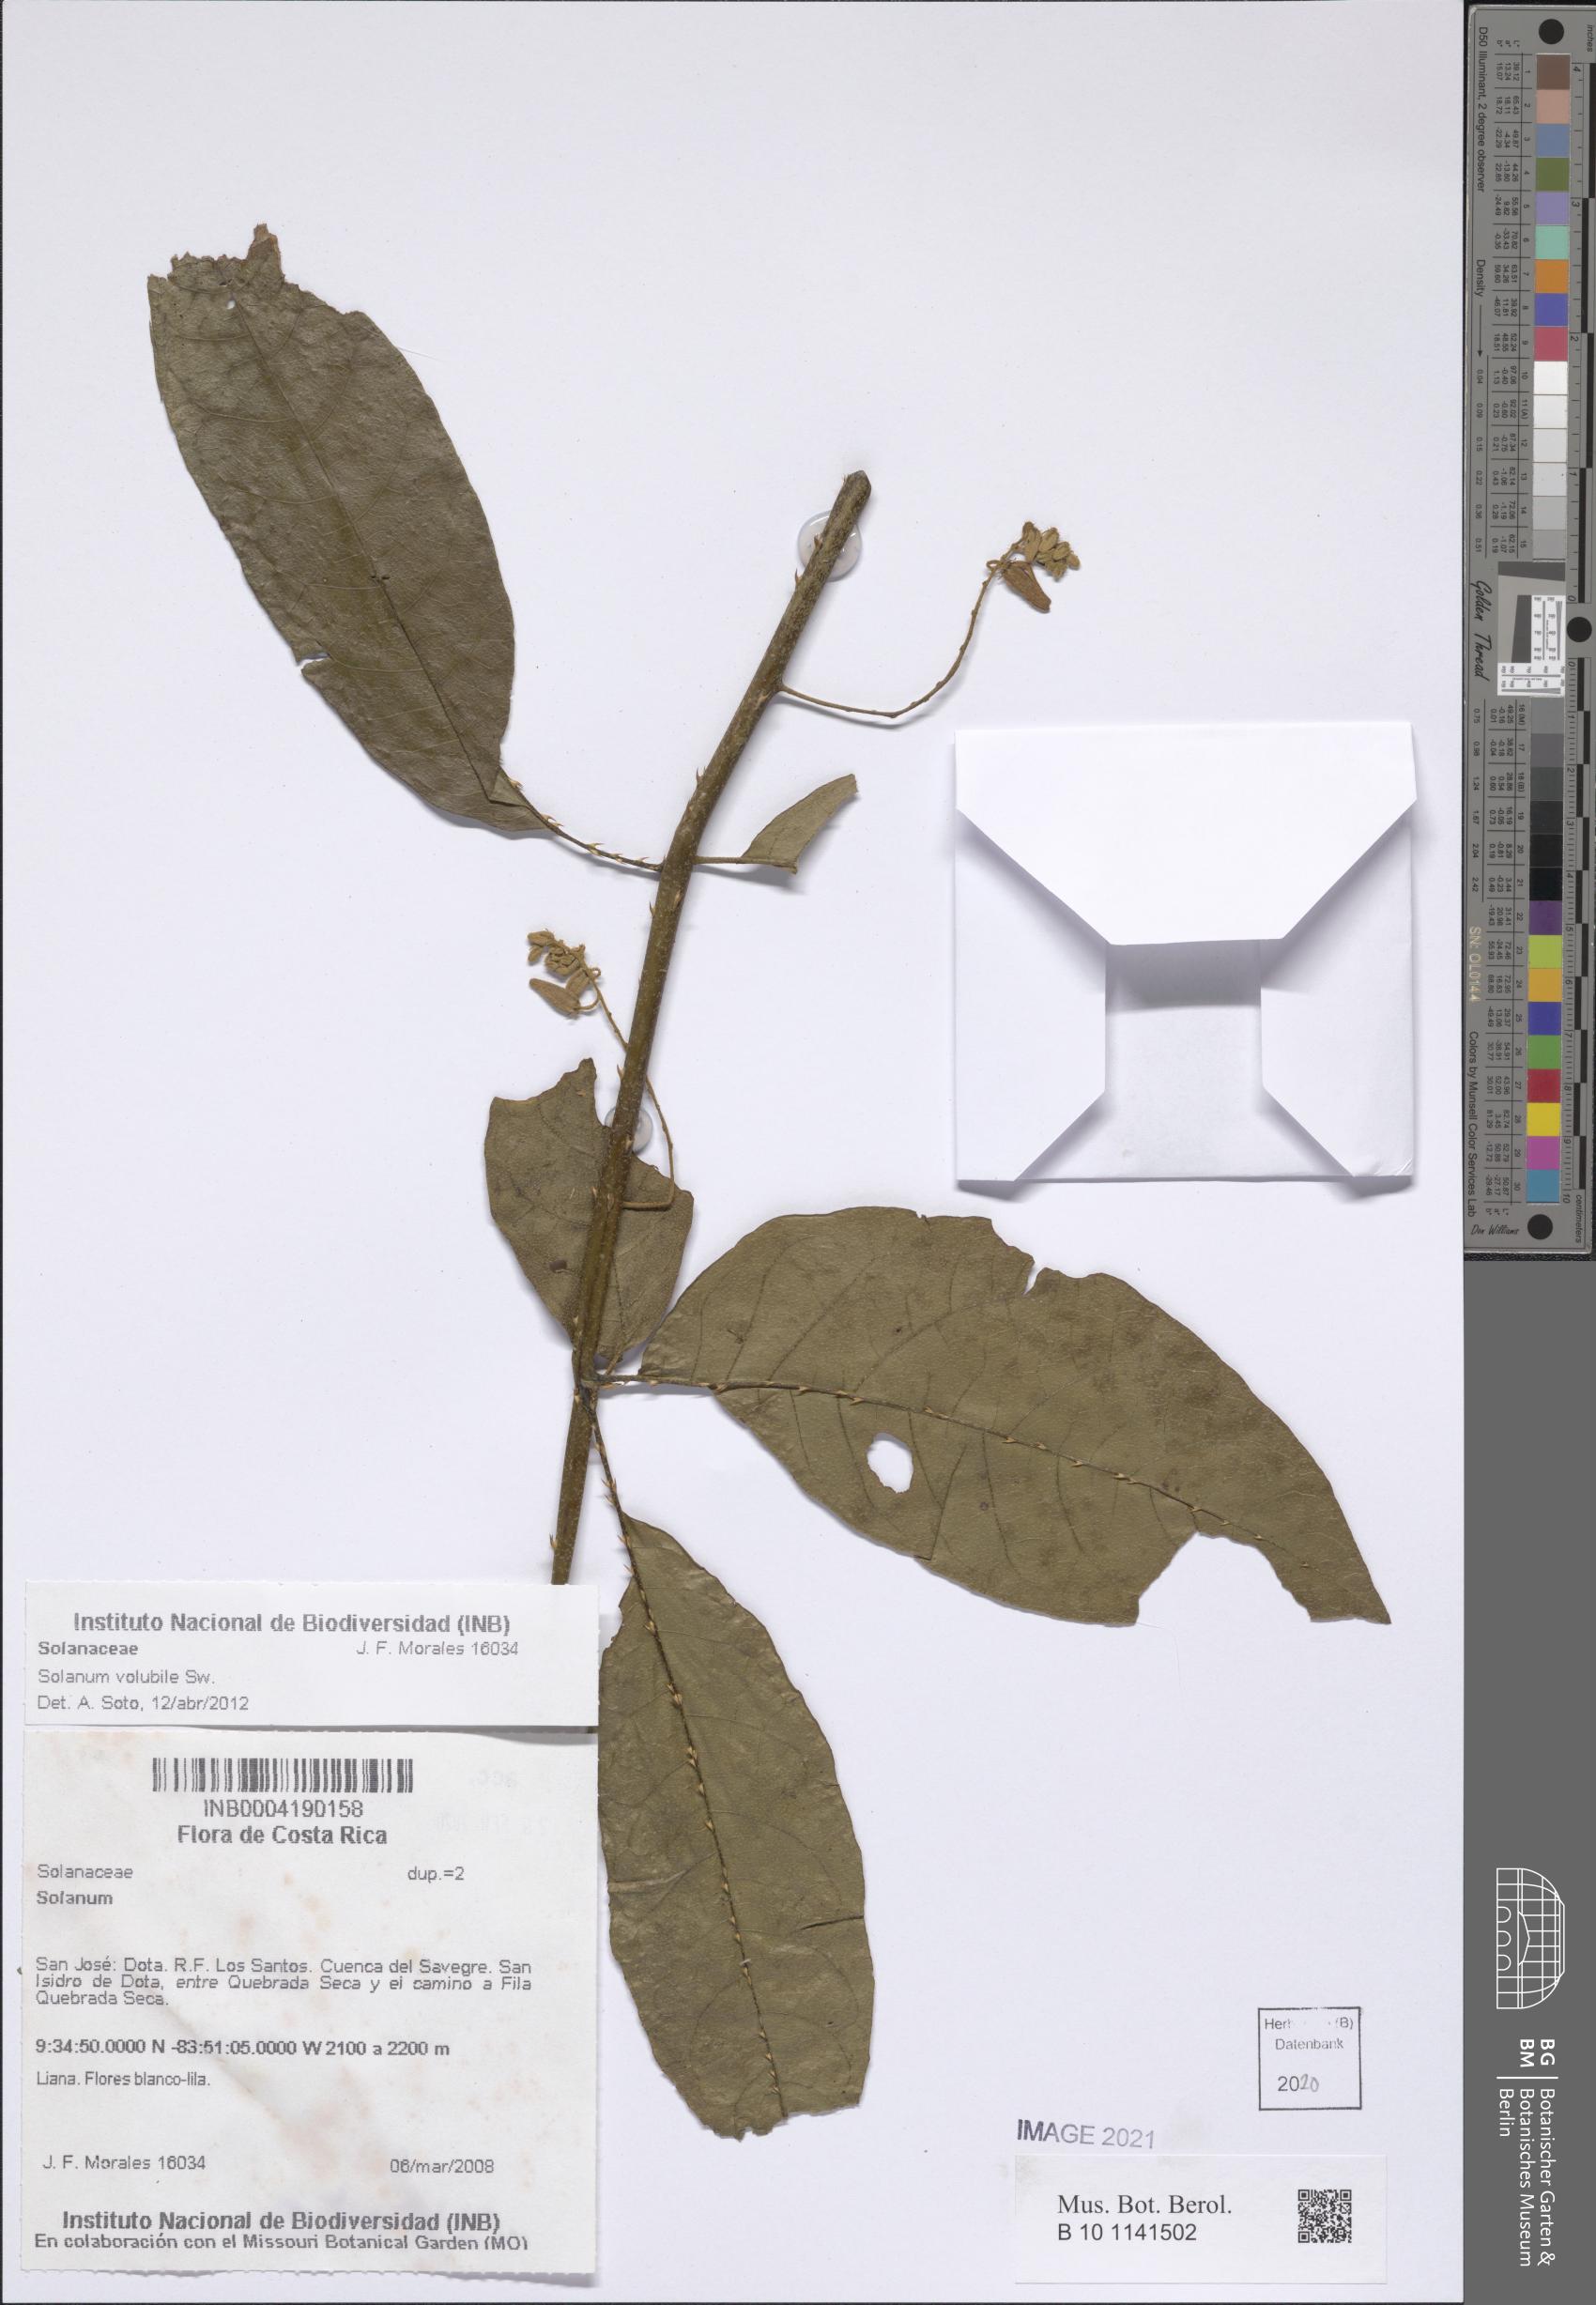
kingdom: Plantae
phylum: Tracheophyta
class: Magnoliopsida
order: Solanales
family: Solanaceae
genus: Solanum
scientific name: Solanum volubile
